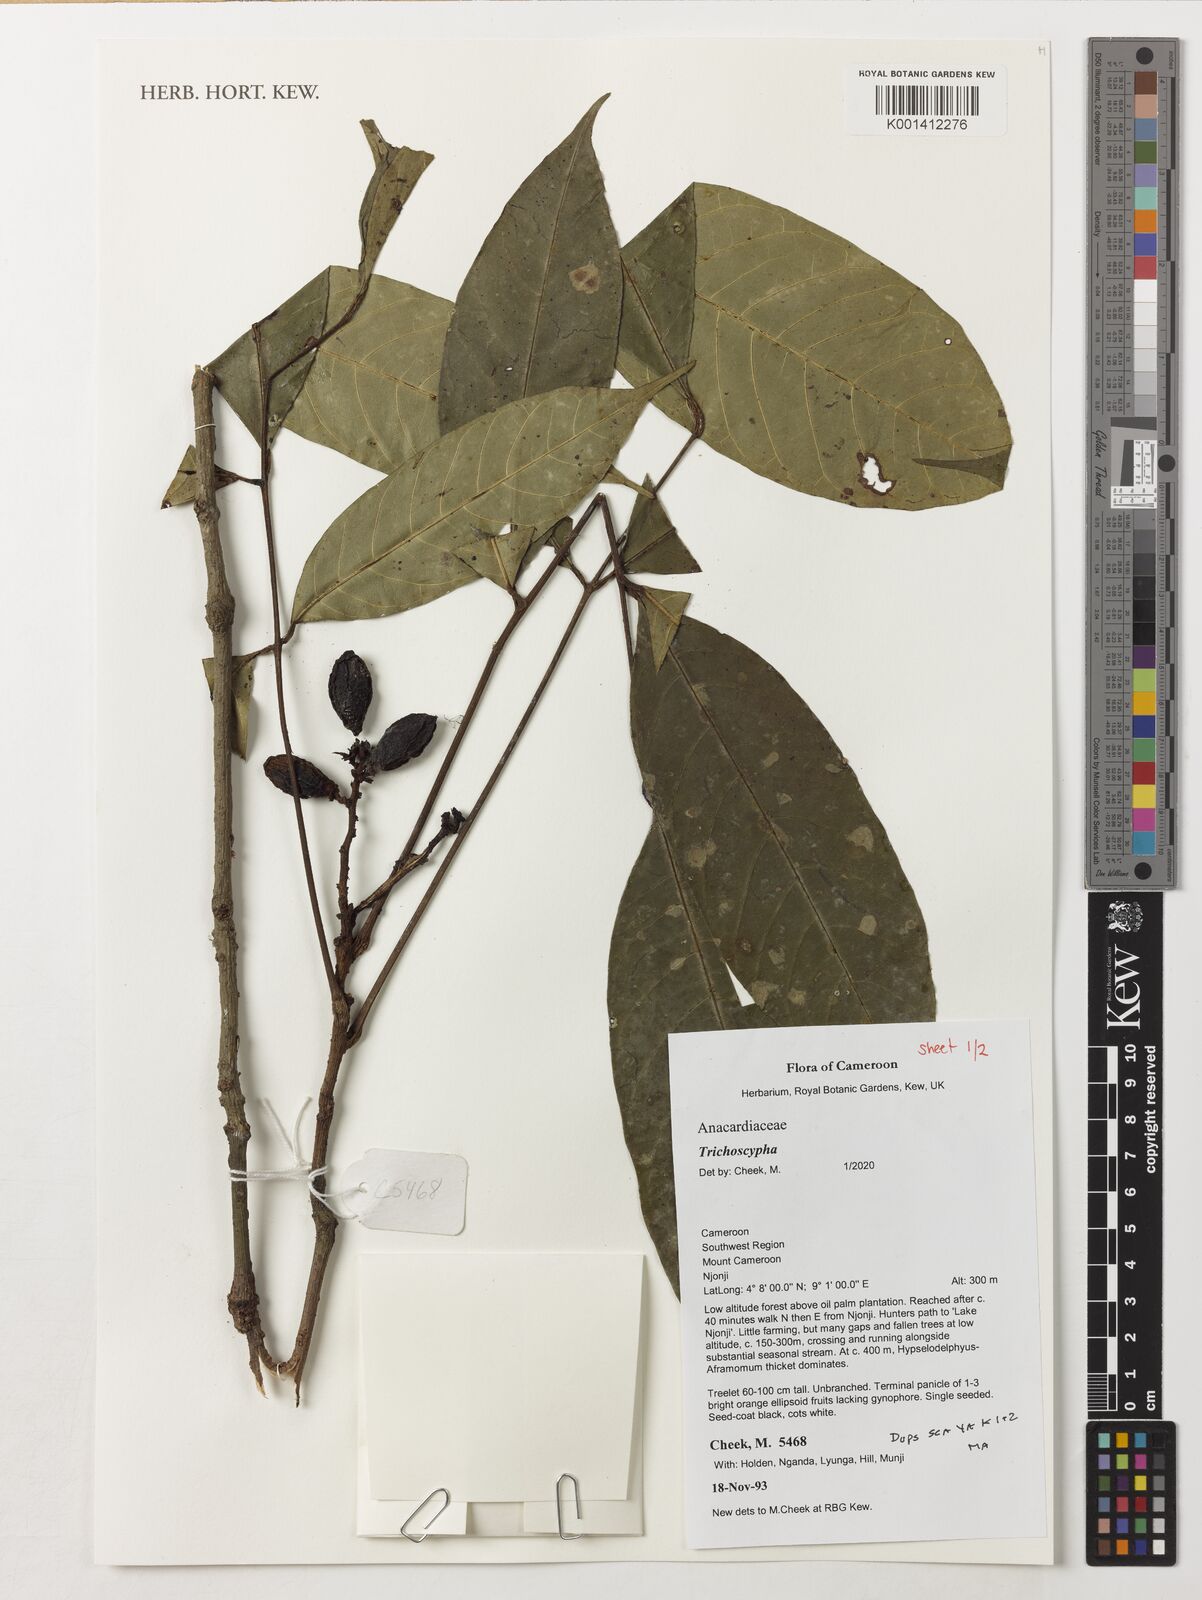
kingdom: Plantae
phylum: Tracheophyta
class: Magnoliopsida
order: Sapindales
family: Anacardiaceae
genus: Trichoscypha
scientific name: Trichoscypha
